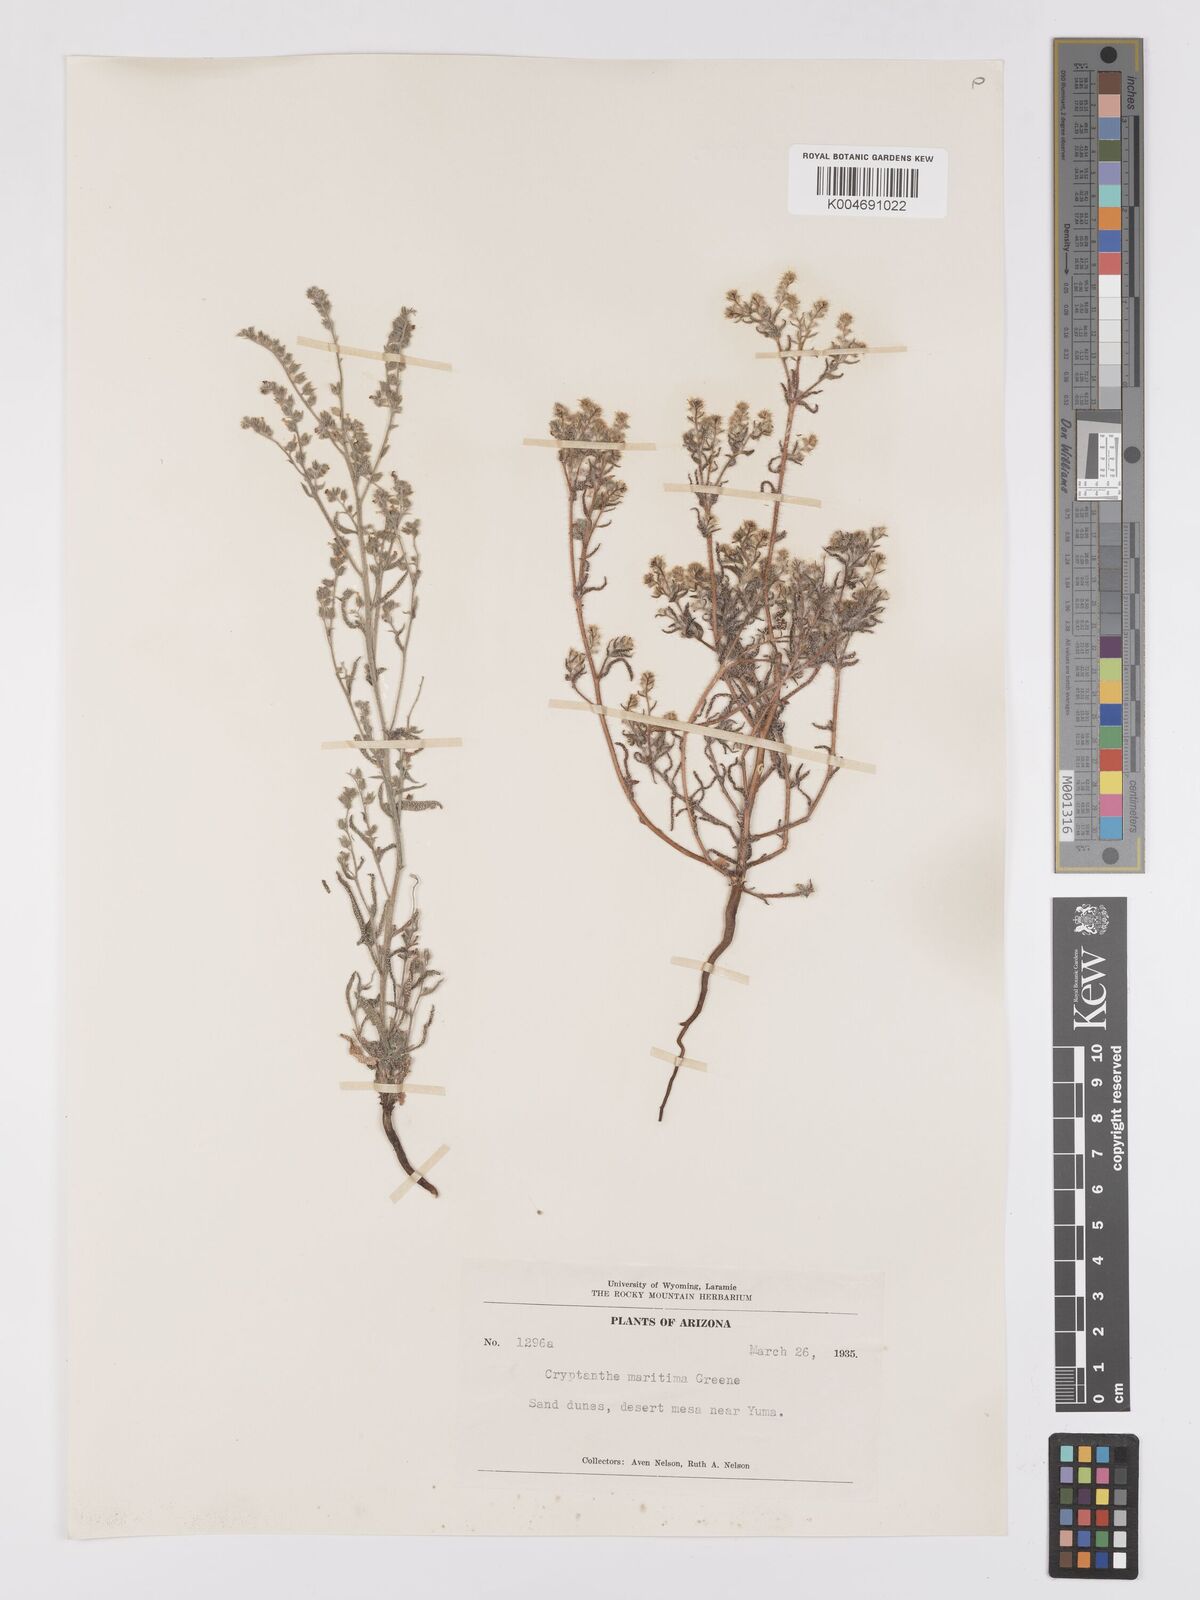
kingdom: Plantae
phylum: Tracheophyta
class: Magnoliopsida
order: Boraginales
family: Boraginaceae
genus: Cryptantha
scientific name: Cryptantha maritima
